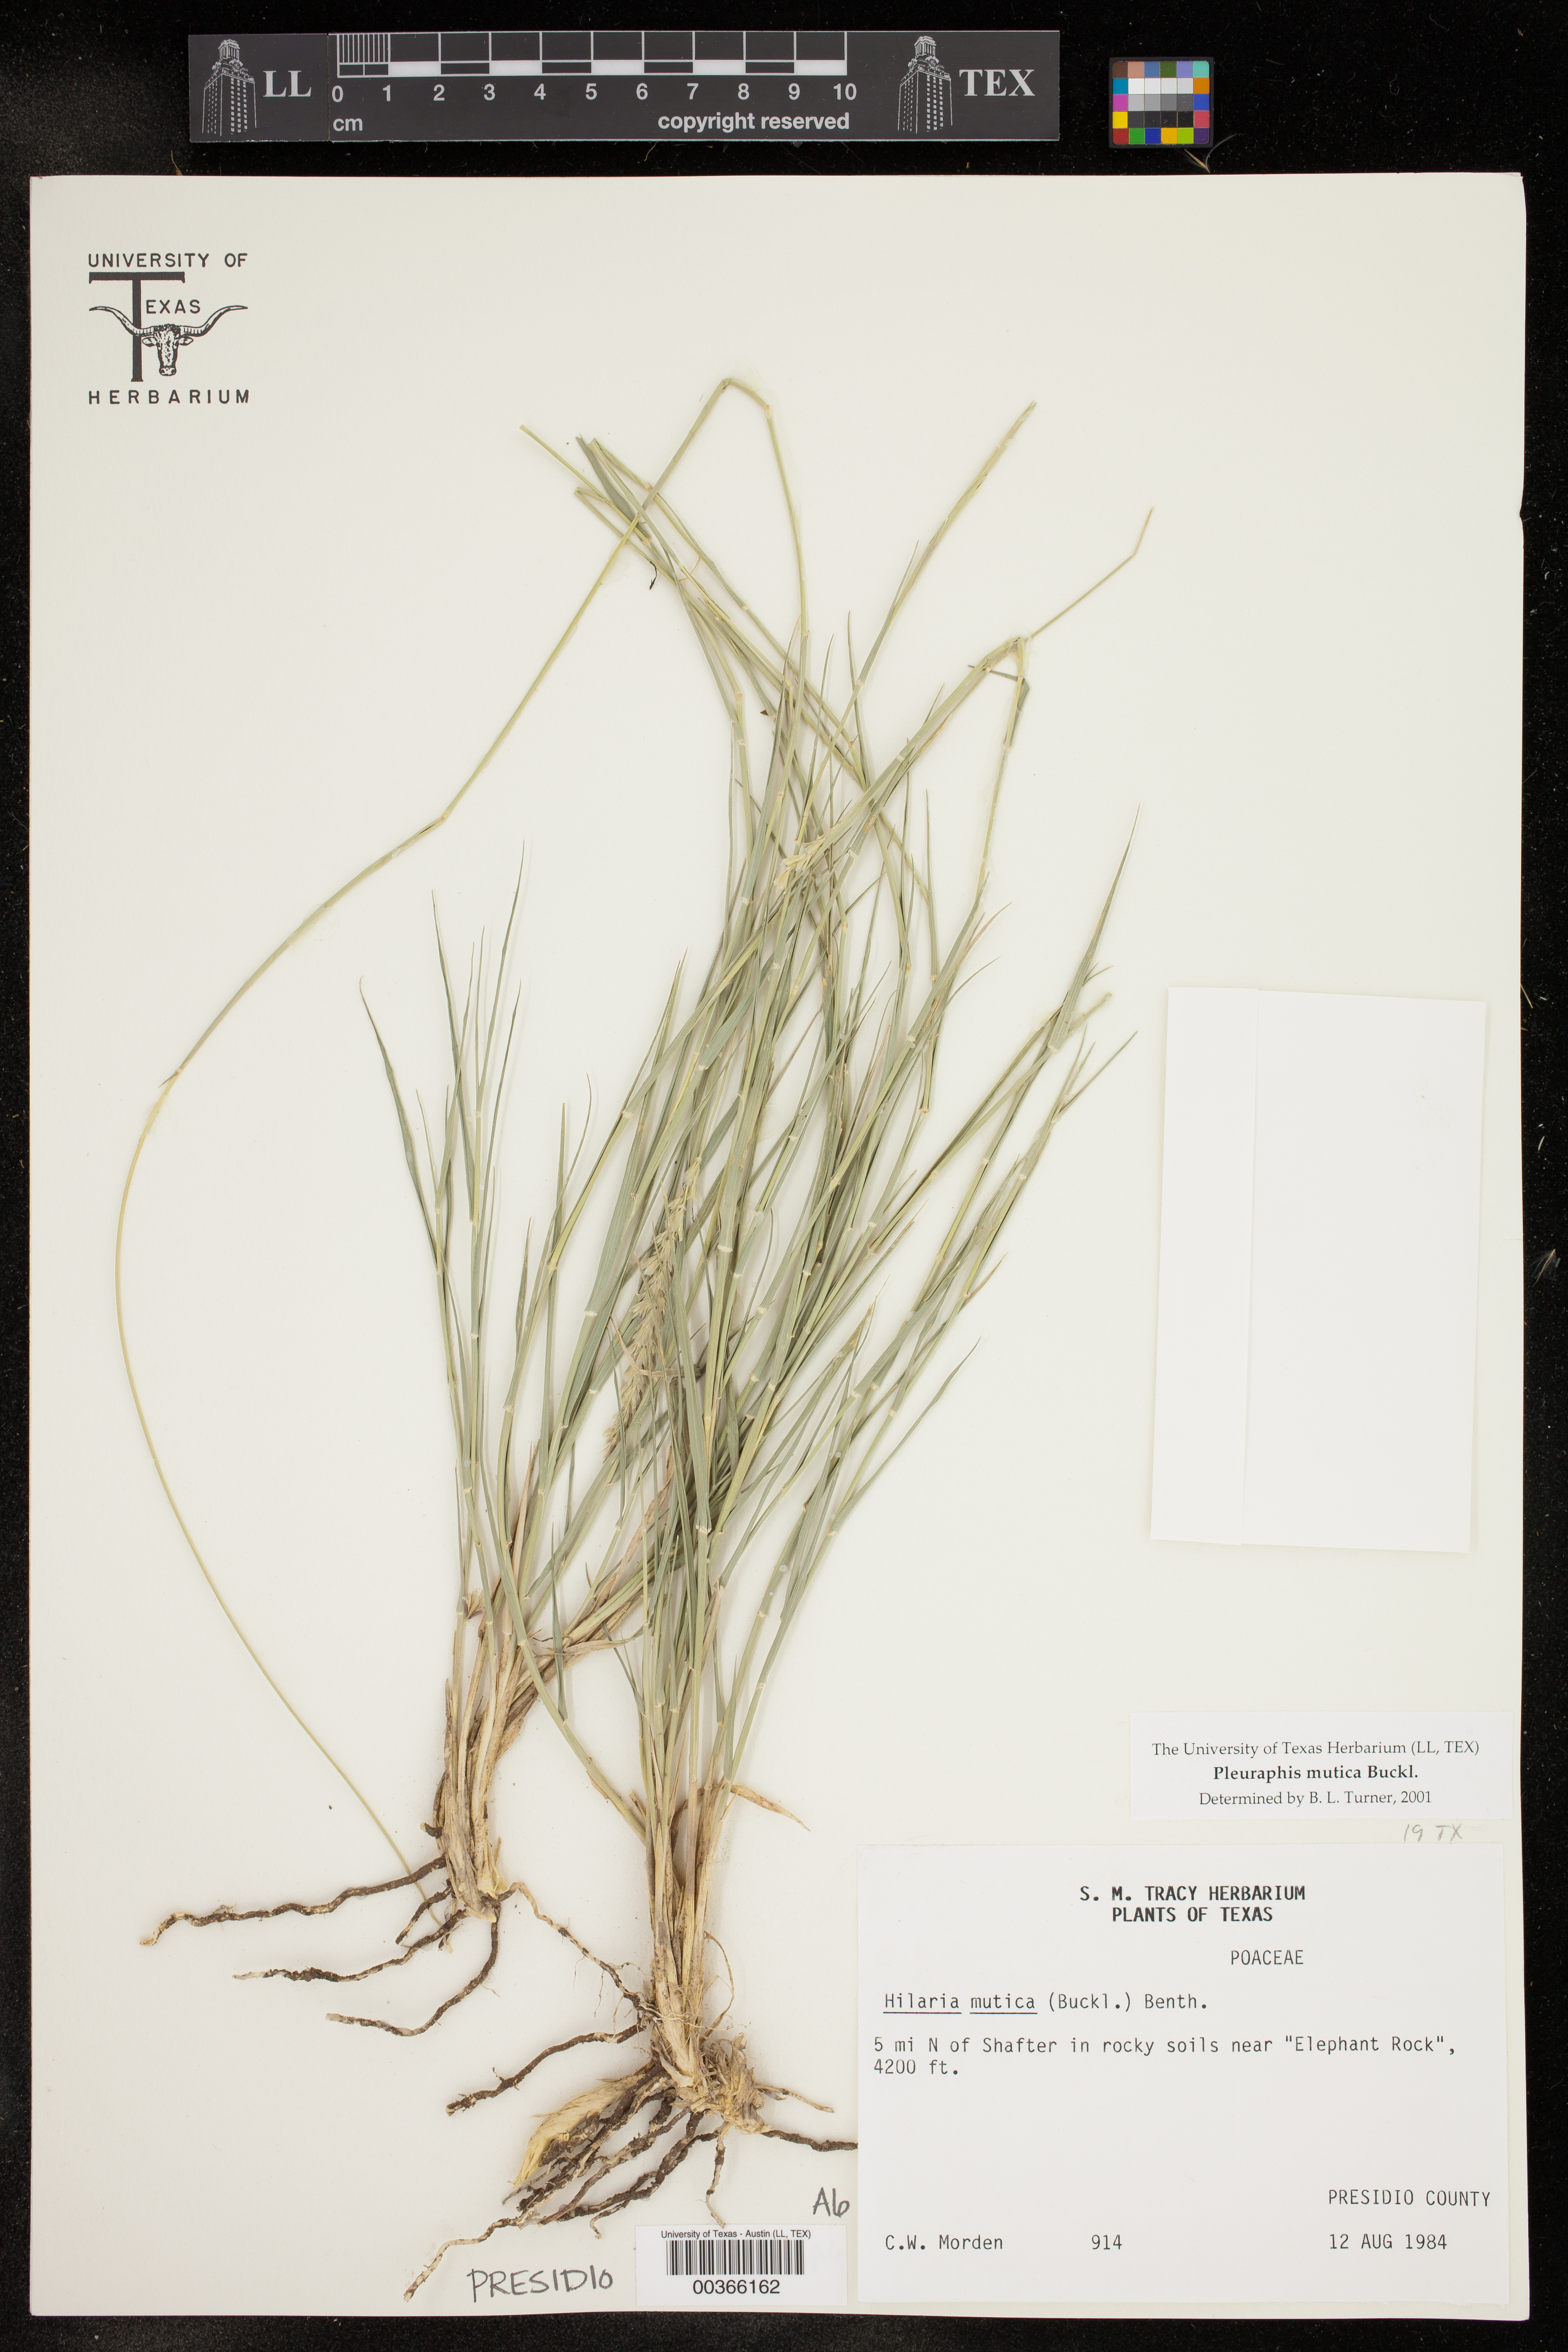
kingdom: Plantae
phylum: Tracheophyta
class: Liliopsida
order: Poales
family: Poaceae
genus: Hilaria
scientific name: Hilaria mutica
